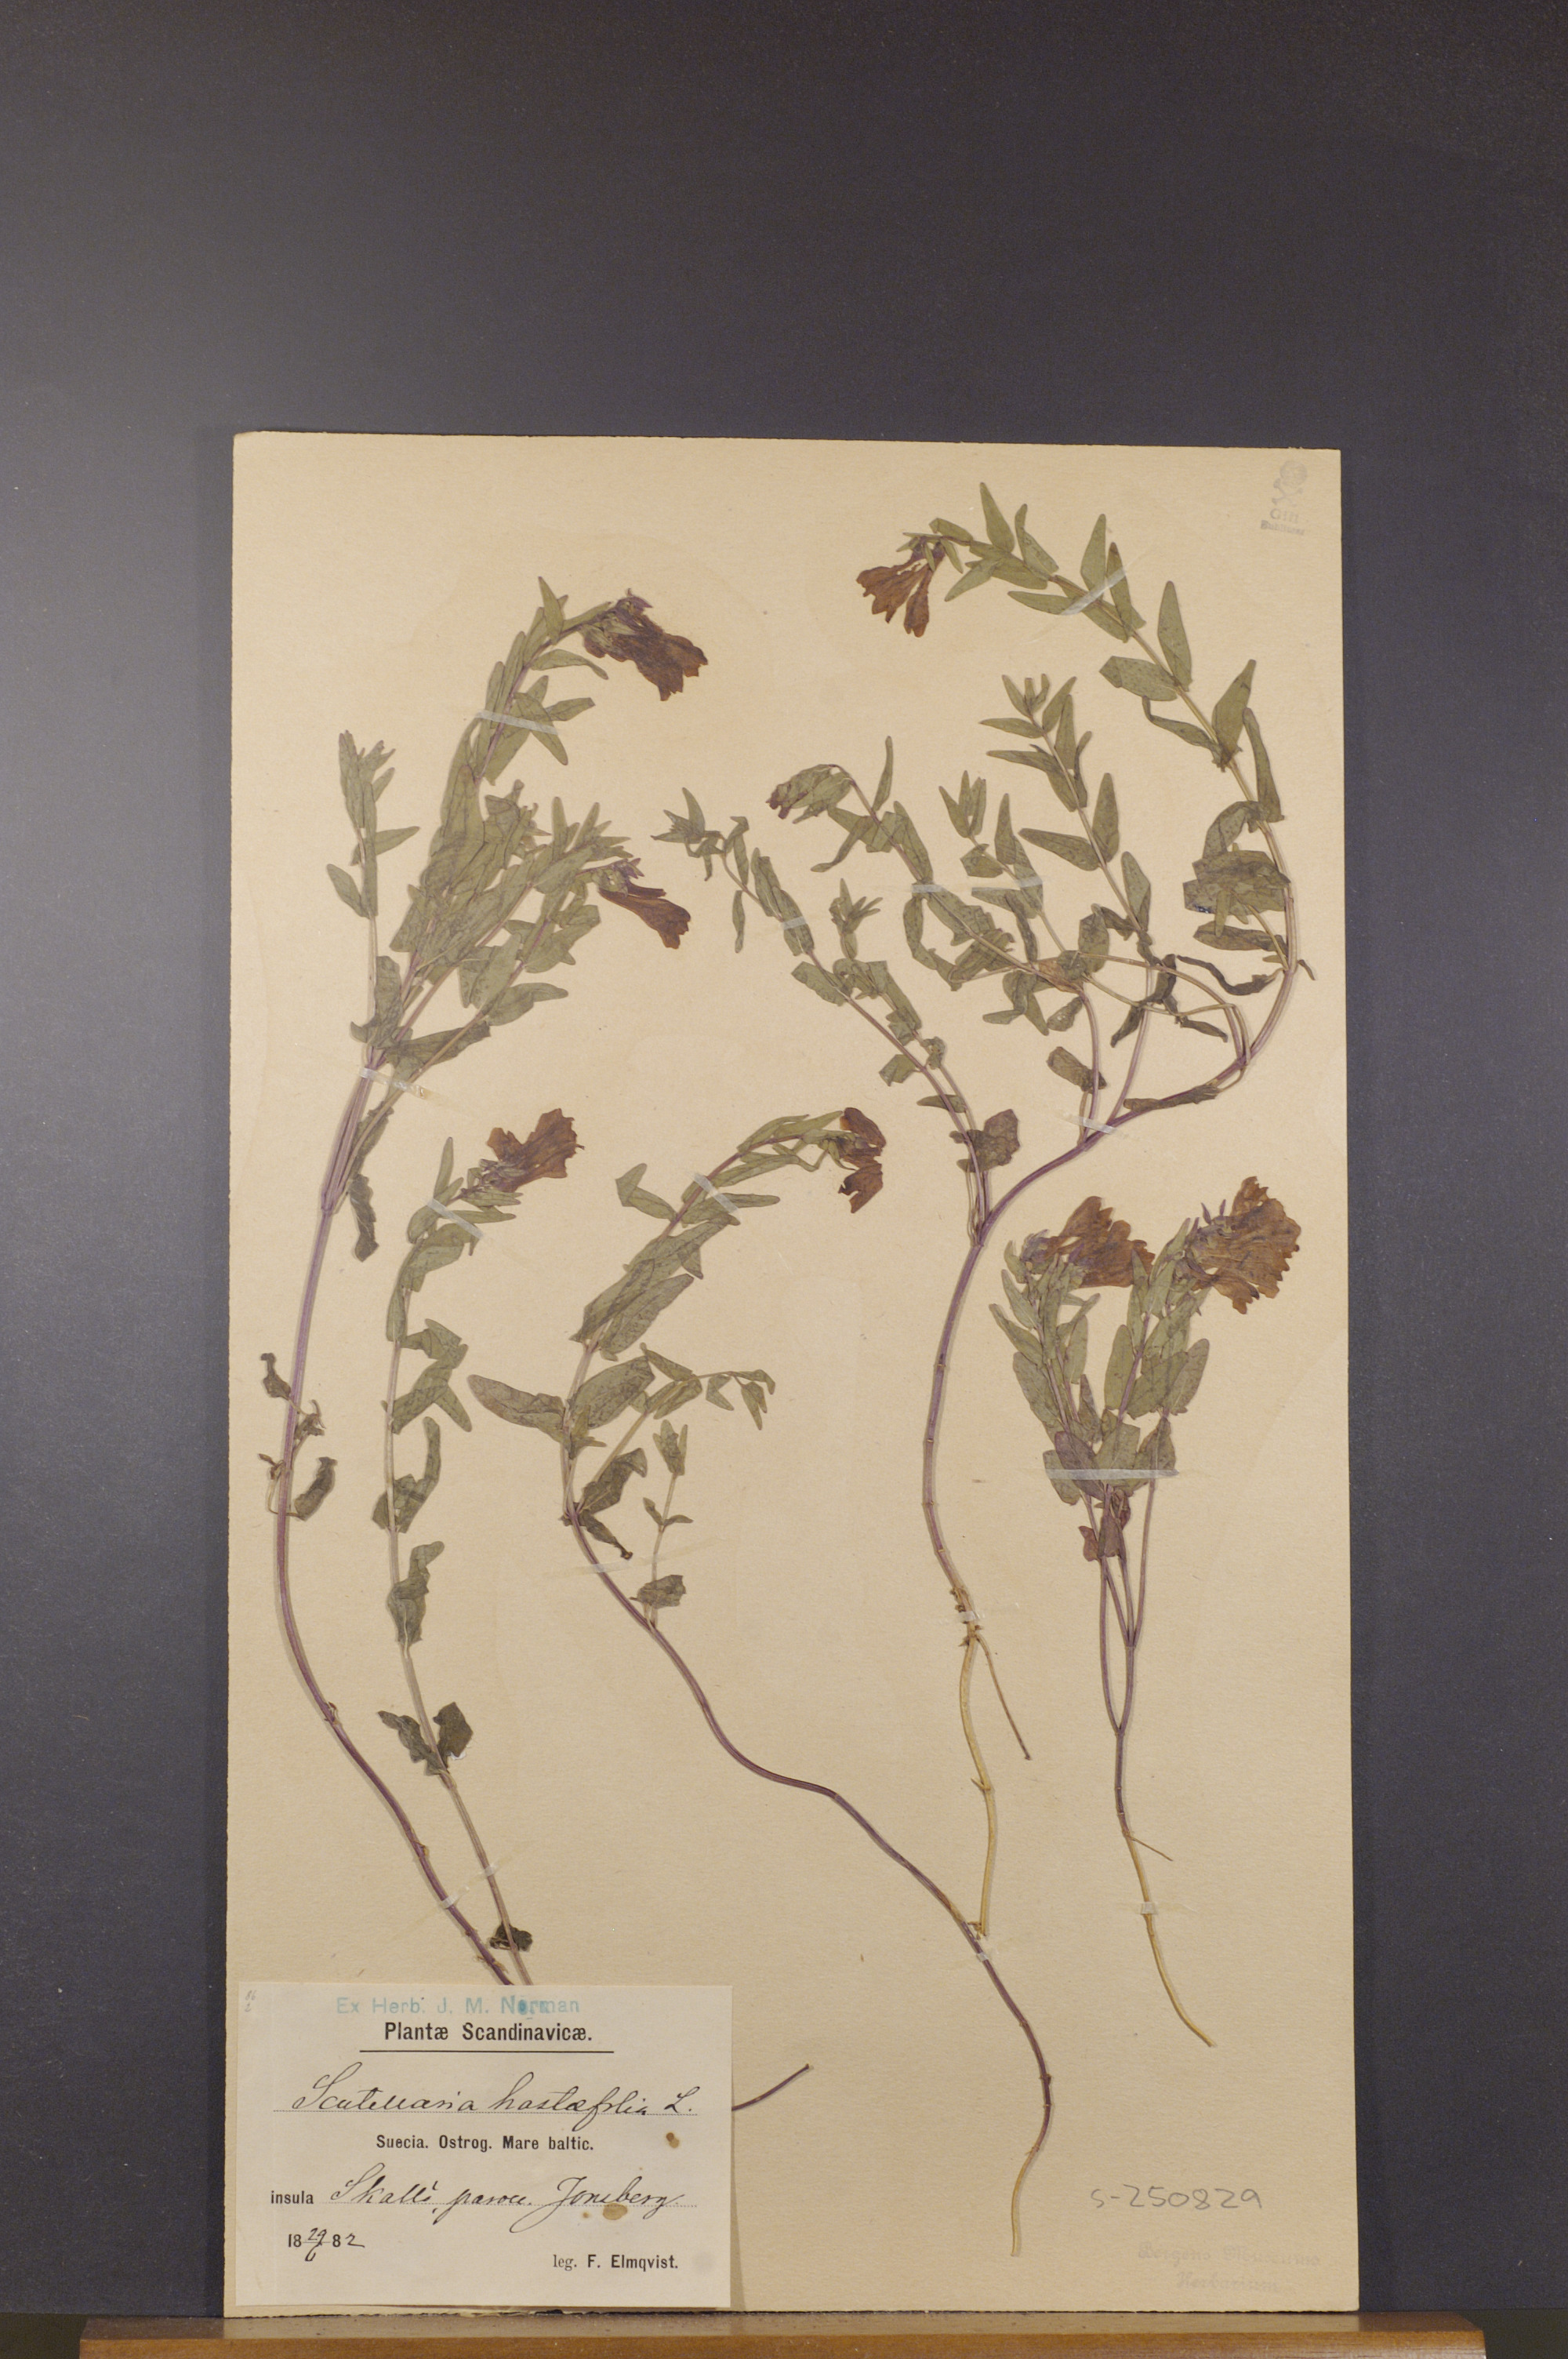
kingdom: Plantae
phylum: Tracheophyta
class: Magnoliopsida
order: Lamiales
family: Lamiaceae
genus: Scutellaria
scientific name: Scutellaria hastifolia
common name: Norfolk skullcap
